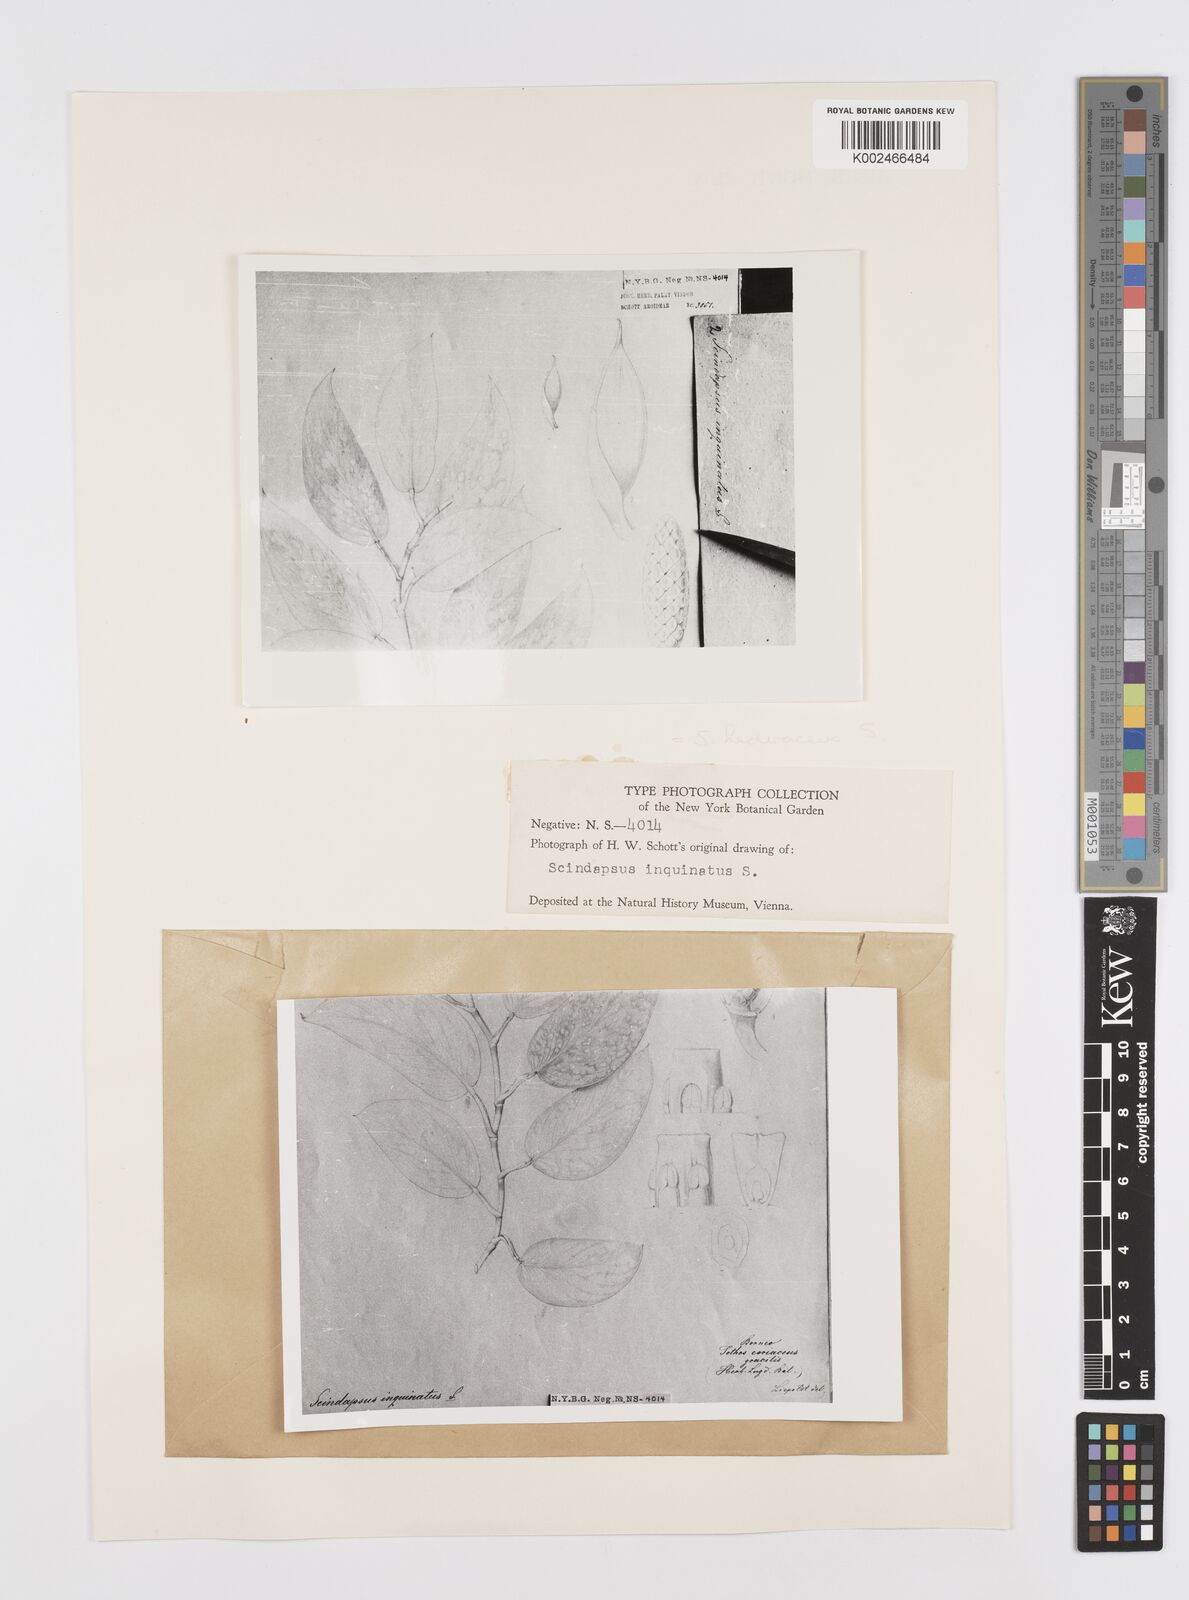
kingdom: Plantae
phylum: Tracheophyta
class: Liliopsida
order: Alismatales
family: Araceae
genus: Scindapsus
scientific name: Scindapsus pictus
